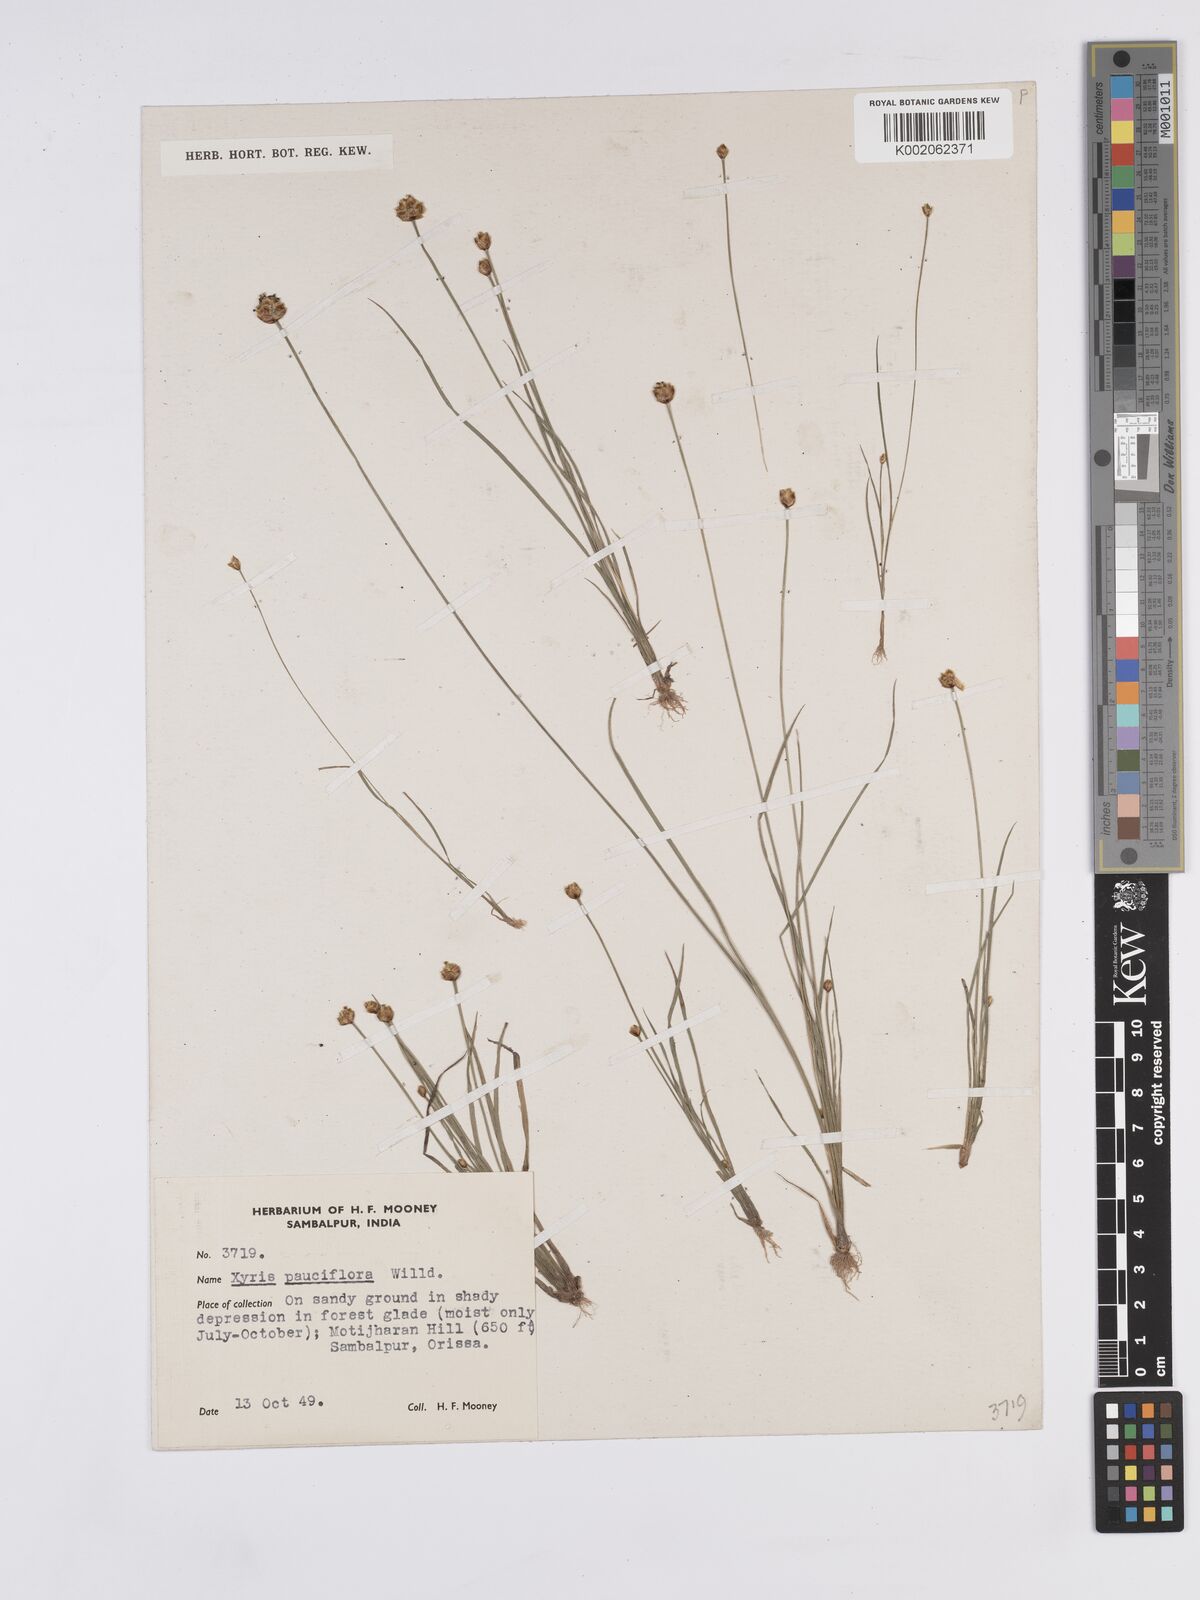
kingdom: Plantae
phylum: Tracheophyta
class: Liliopsida
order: Poales
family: Xyridaceae
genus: Xyris
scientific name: Xyris pauciflora
